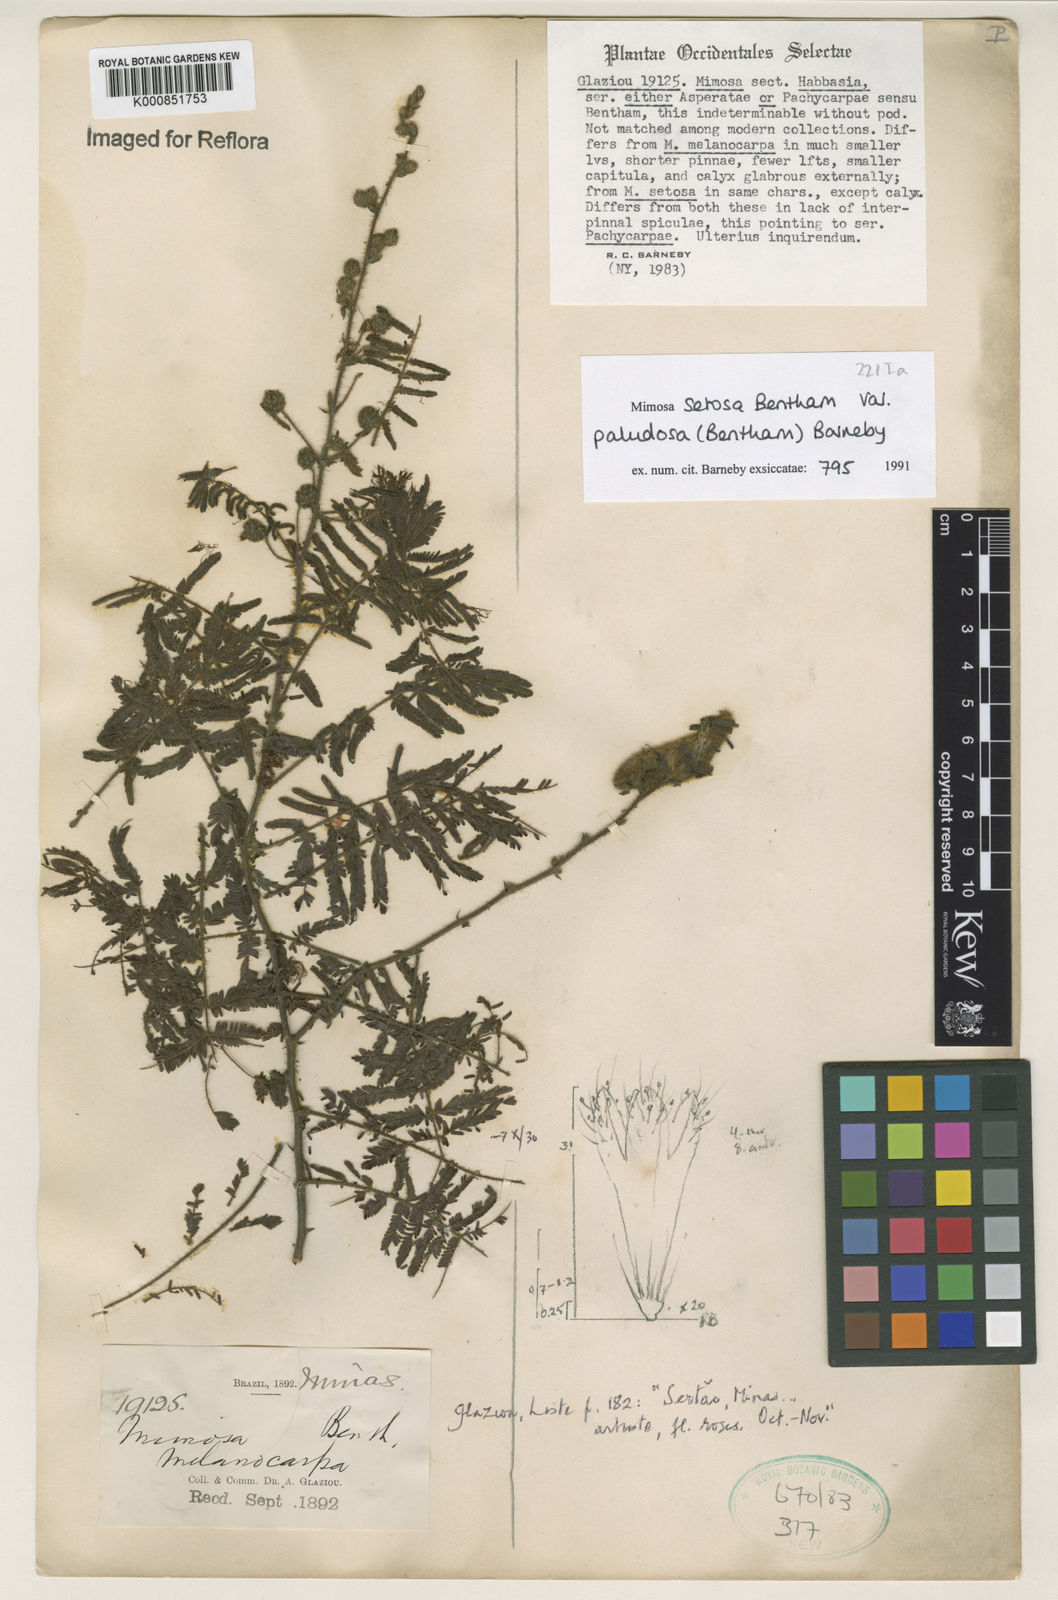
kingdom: Plantae
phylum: Tracheophyta
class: Magnoliopsida
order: Fabales
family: Fabaceae
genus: Mimosa
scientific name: Mimosa serpensetosa
